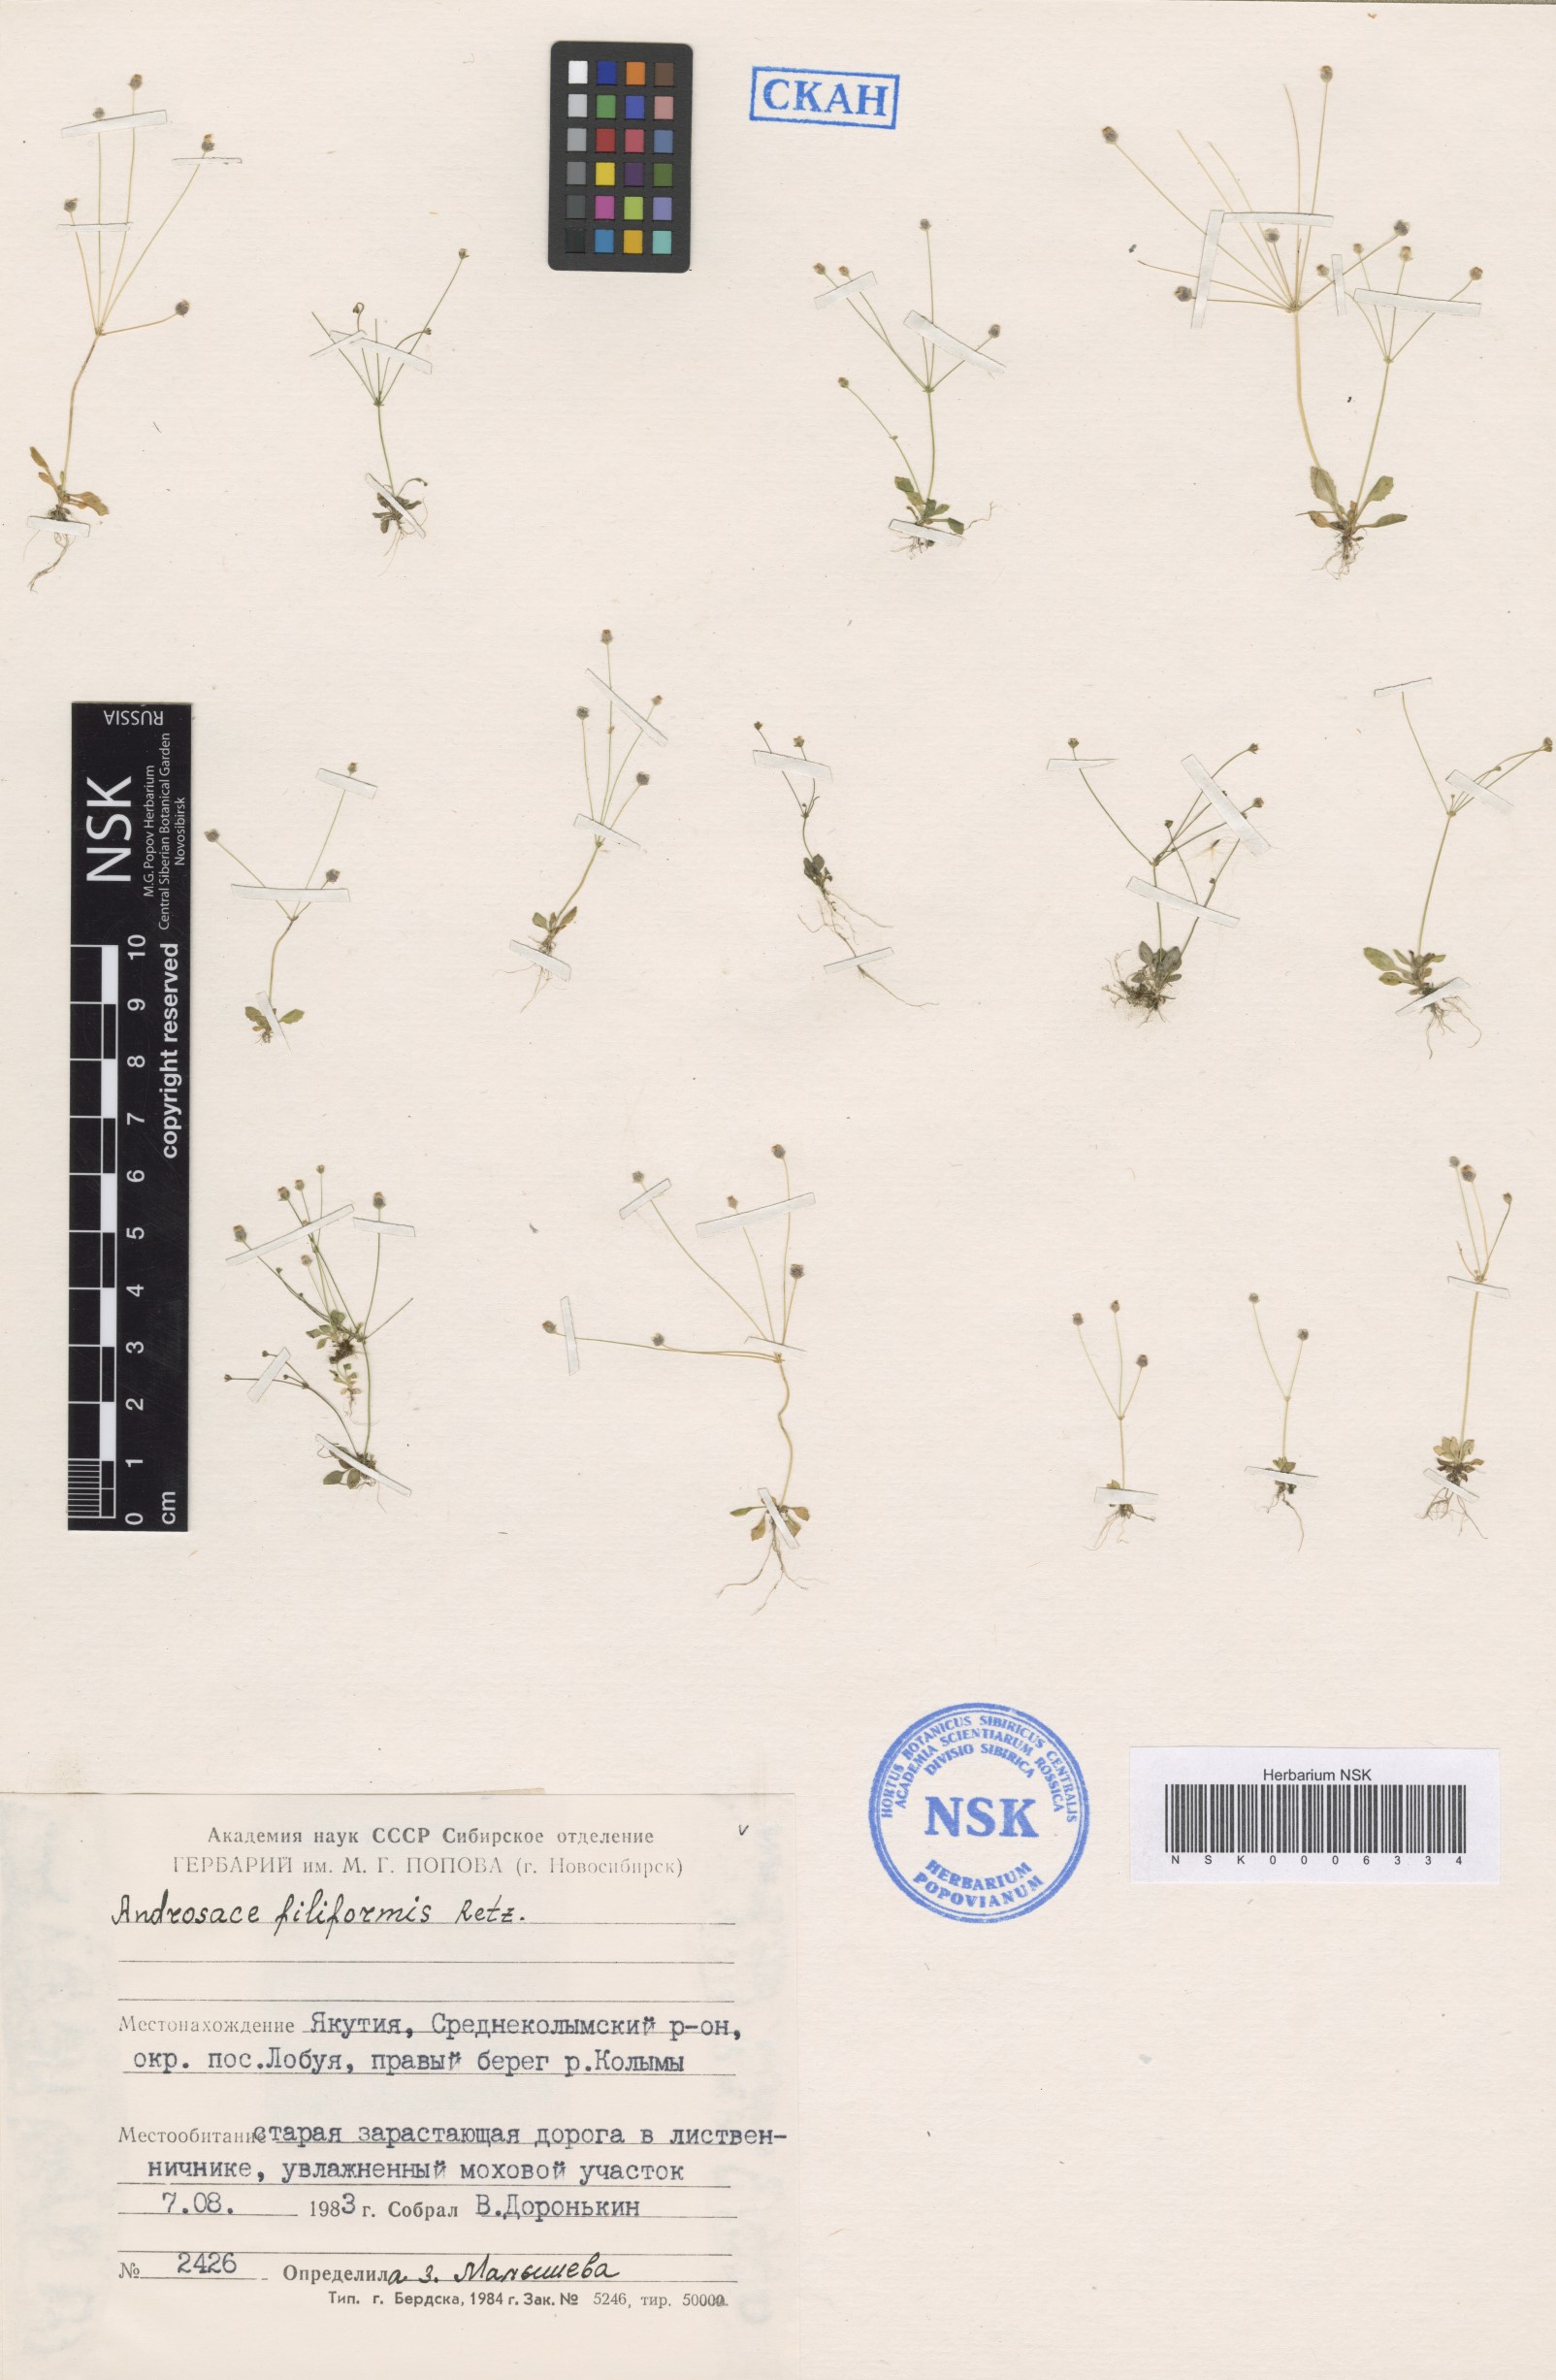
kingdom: Plantae
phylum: Tracheophyta
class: Magnoliopsida
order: Ericales
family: Primulaceae
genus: Androsace
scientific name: Androsace filiformis
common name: Filiform rock jasmine
